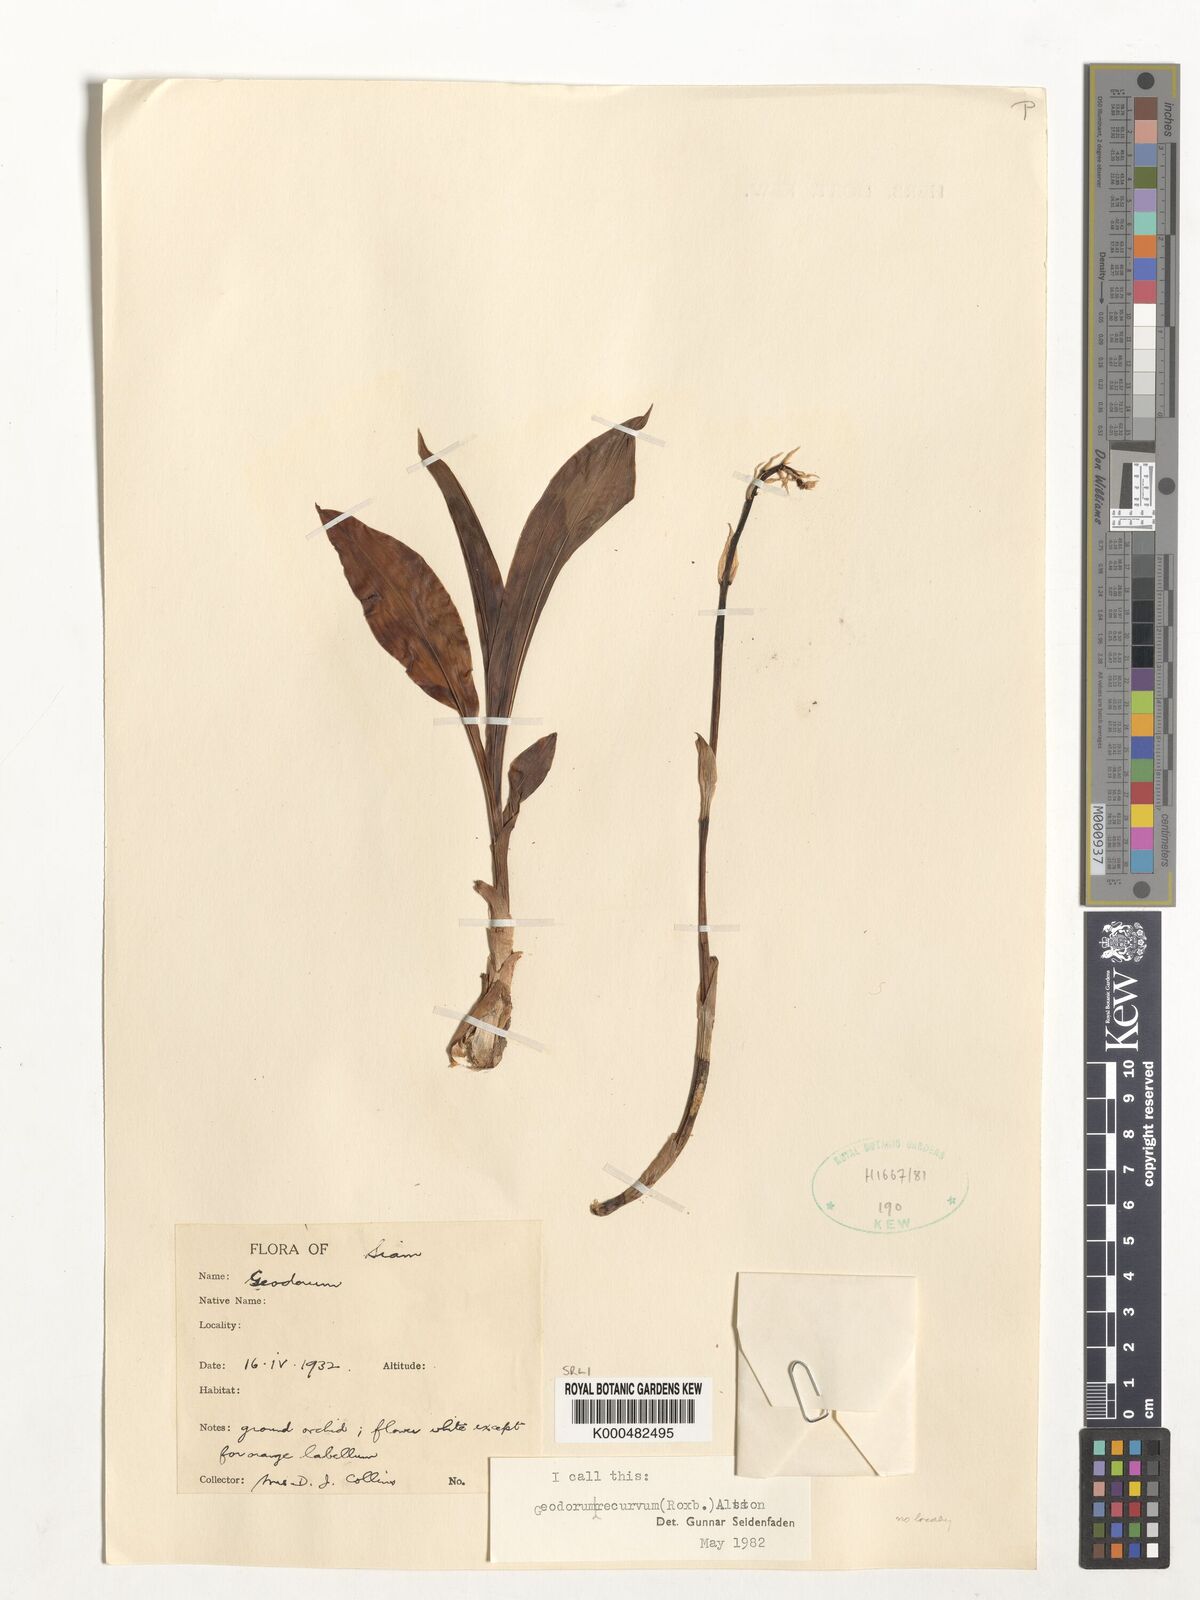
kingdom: Plantae
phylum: Tracheophyta
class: Liliopsida
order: Asparagales
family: Orchidaceae
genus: Eulophia
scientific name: Eulophia recurva
